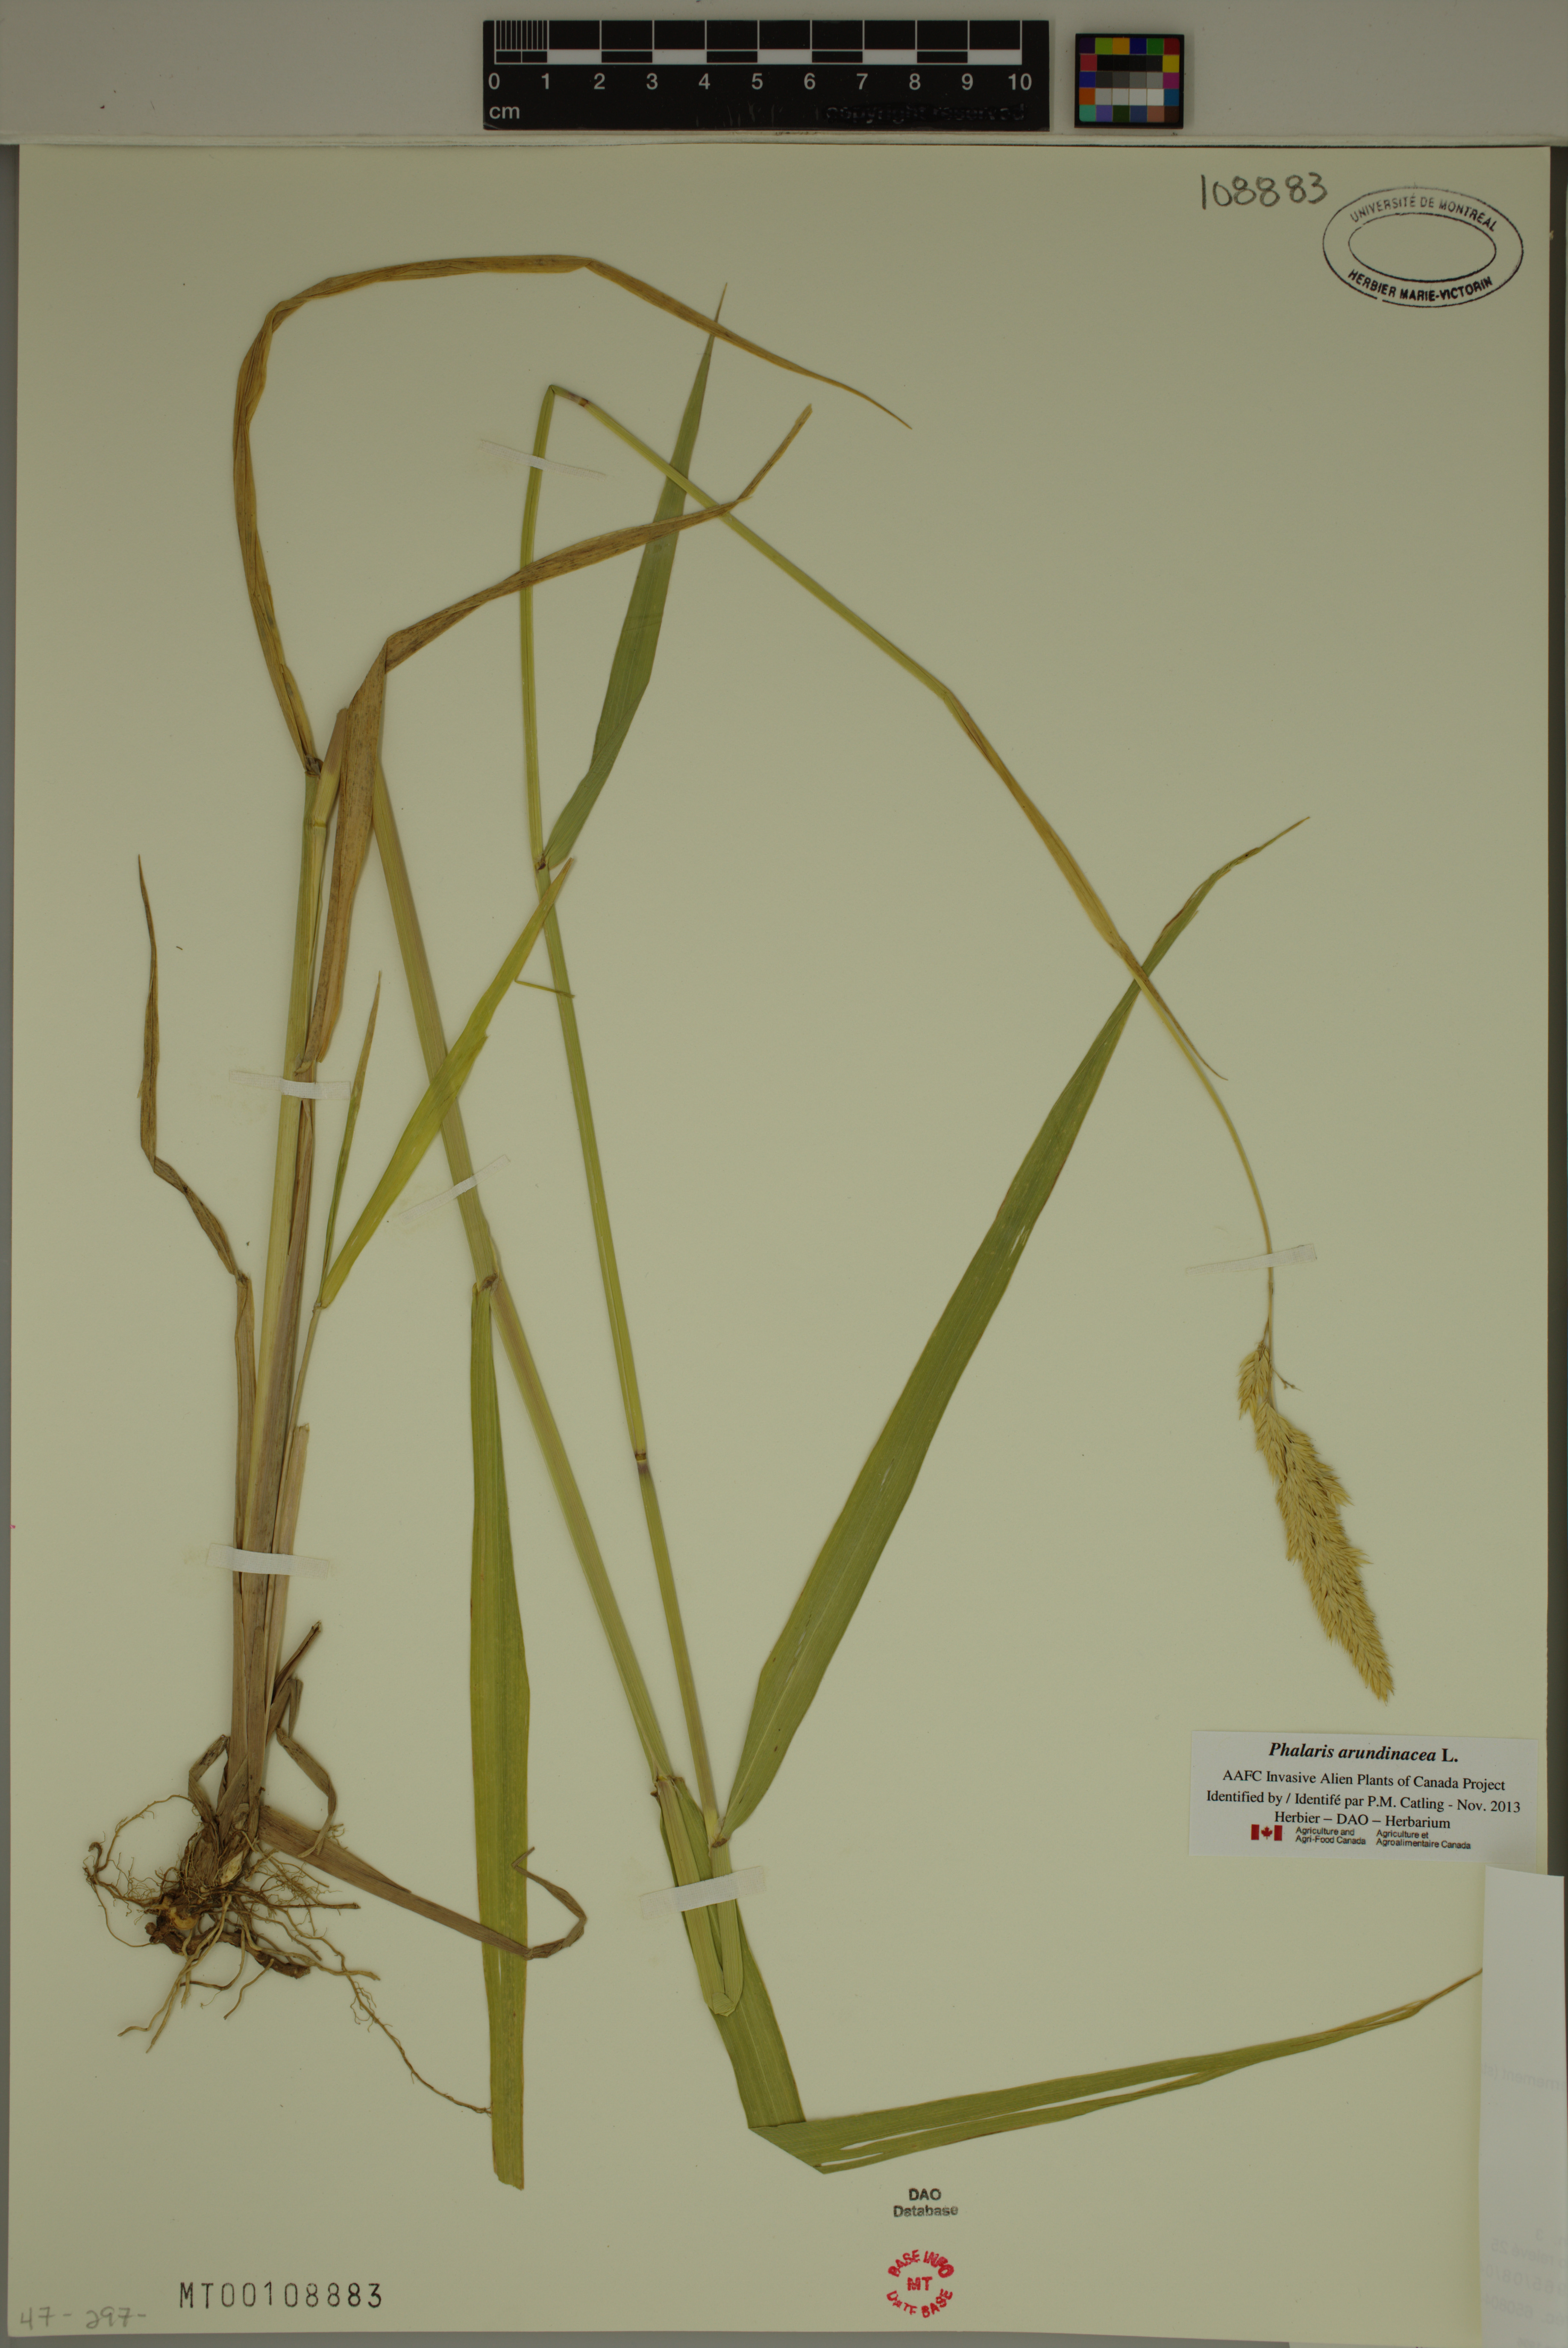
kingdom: Plantae
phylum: Tracheophyta
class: Liliopsida
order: Poales
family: Poaceae
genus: Phalaris
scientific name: Phalaris arundinacea
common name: Reed canary-grass
